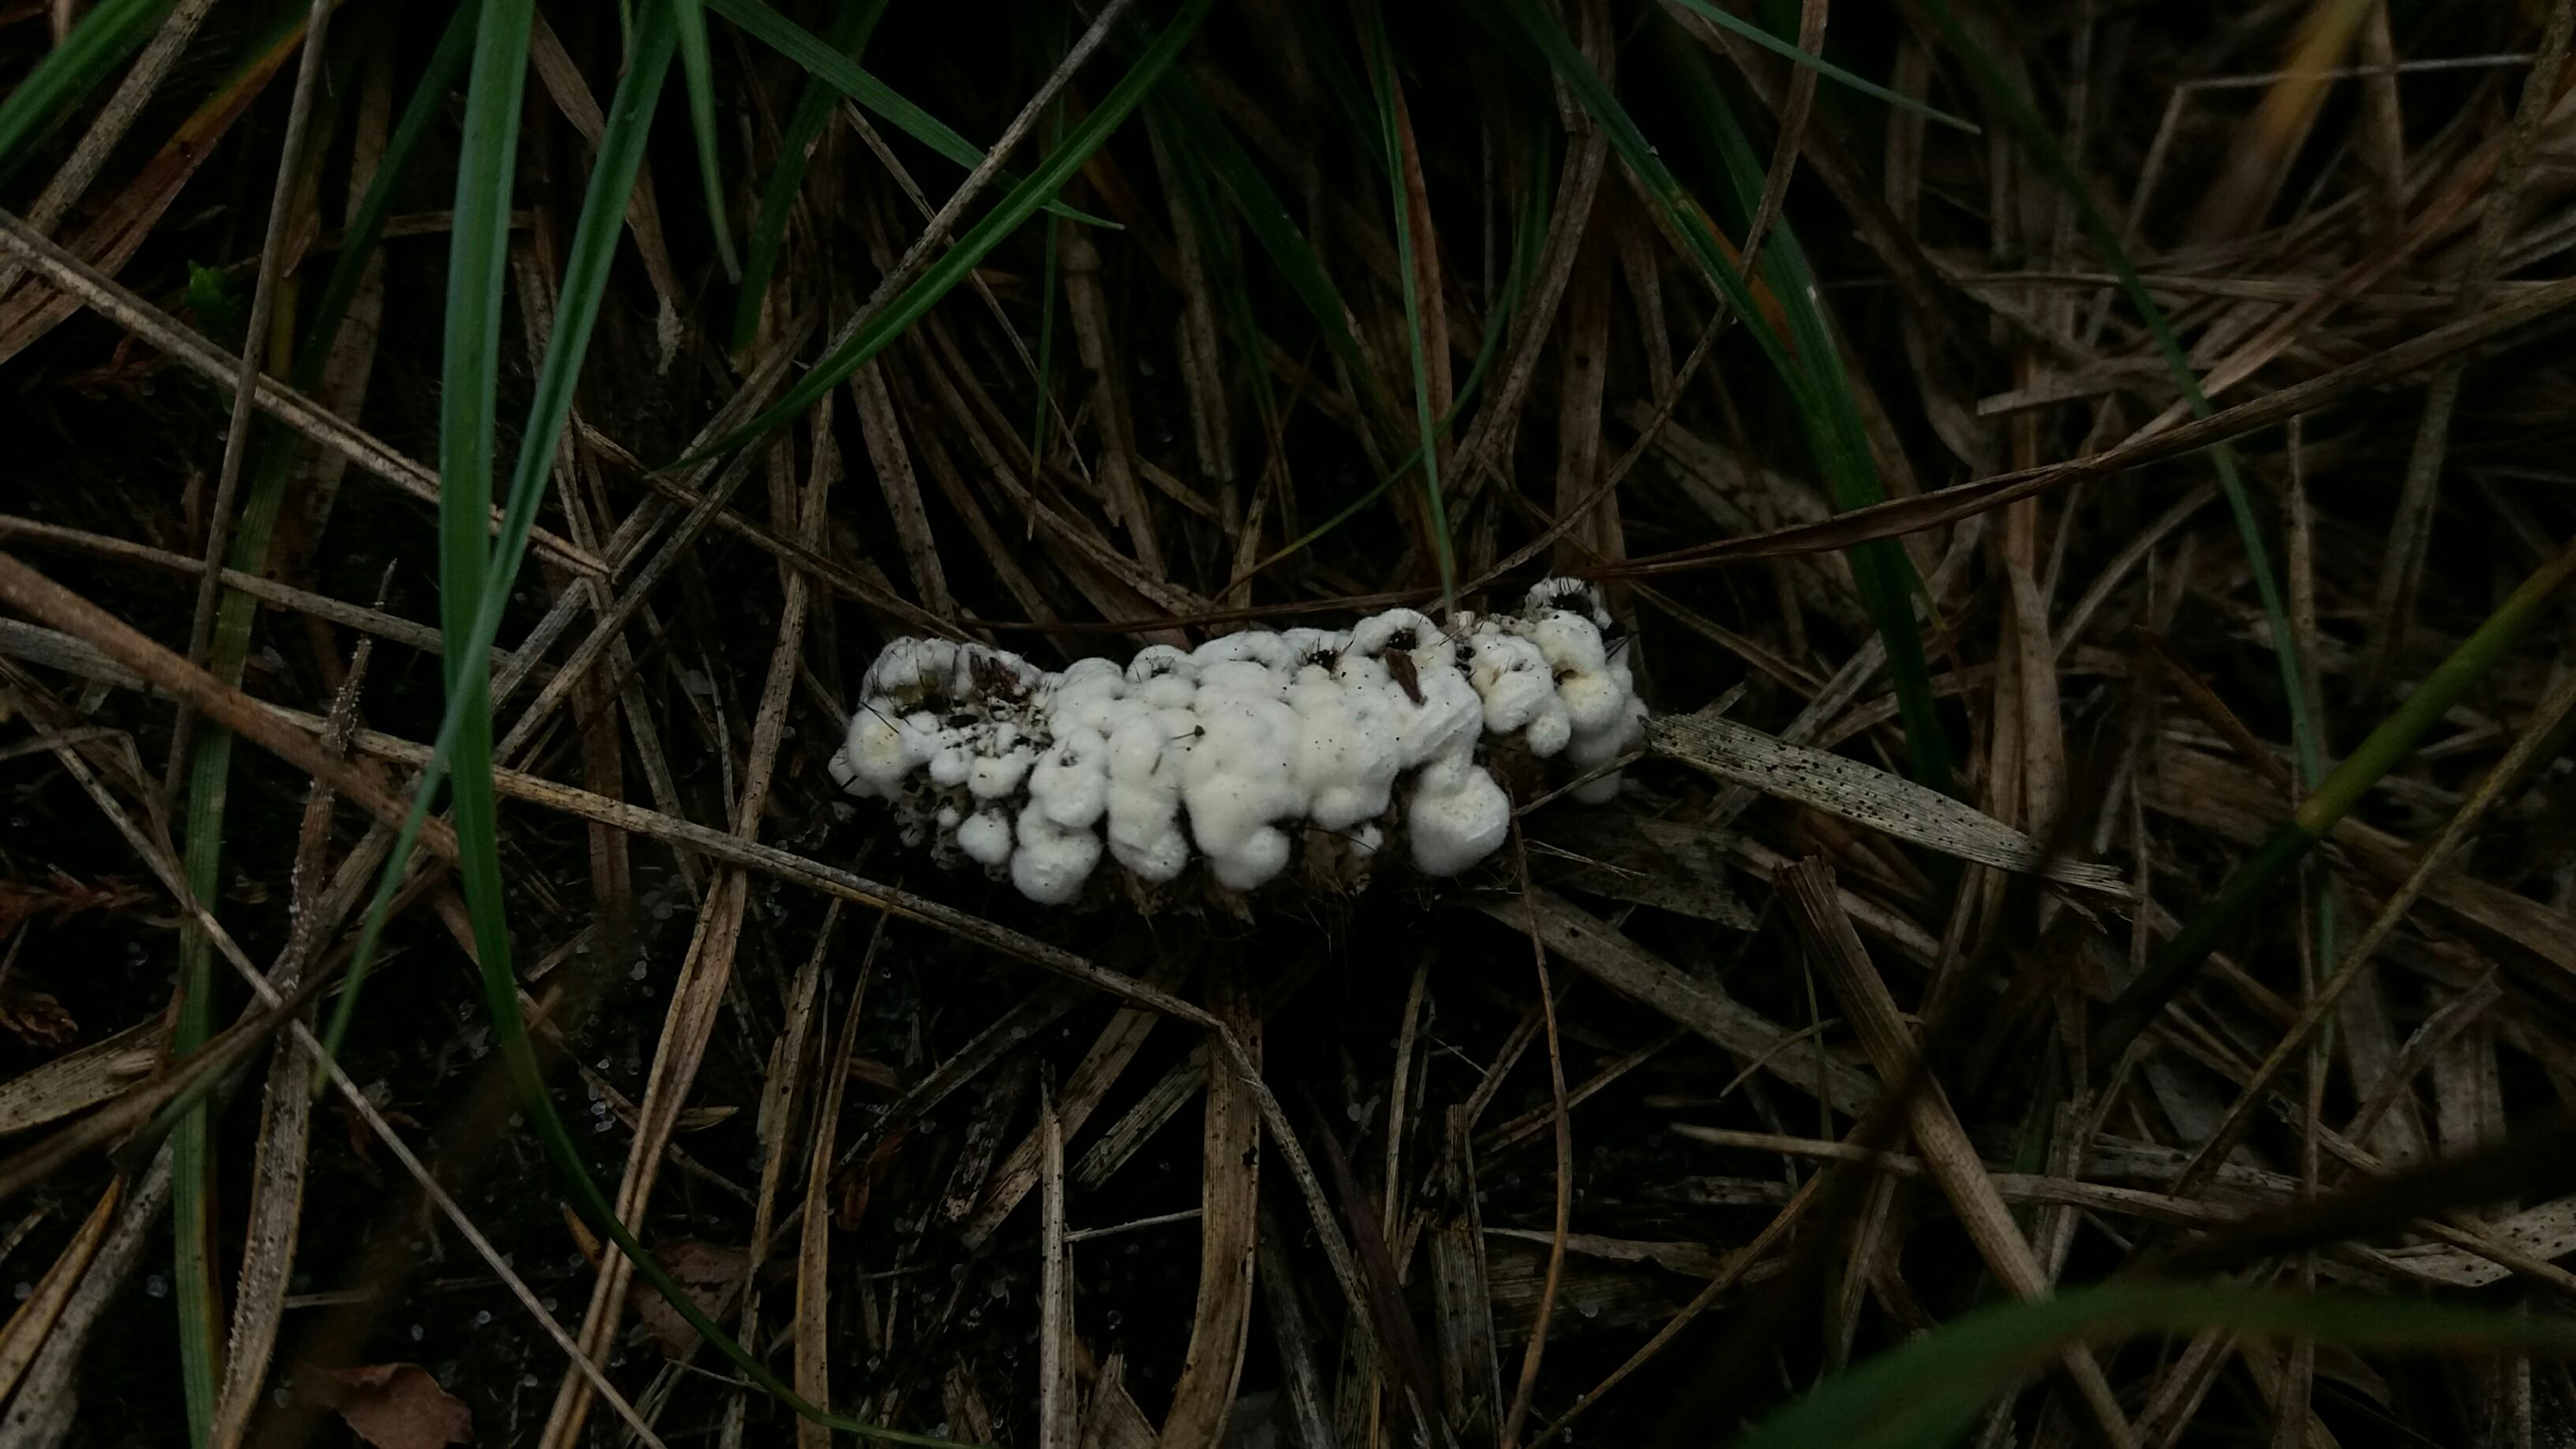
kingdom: Fungi
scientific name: Fungi
